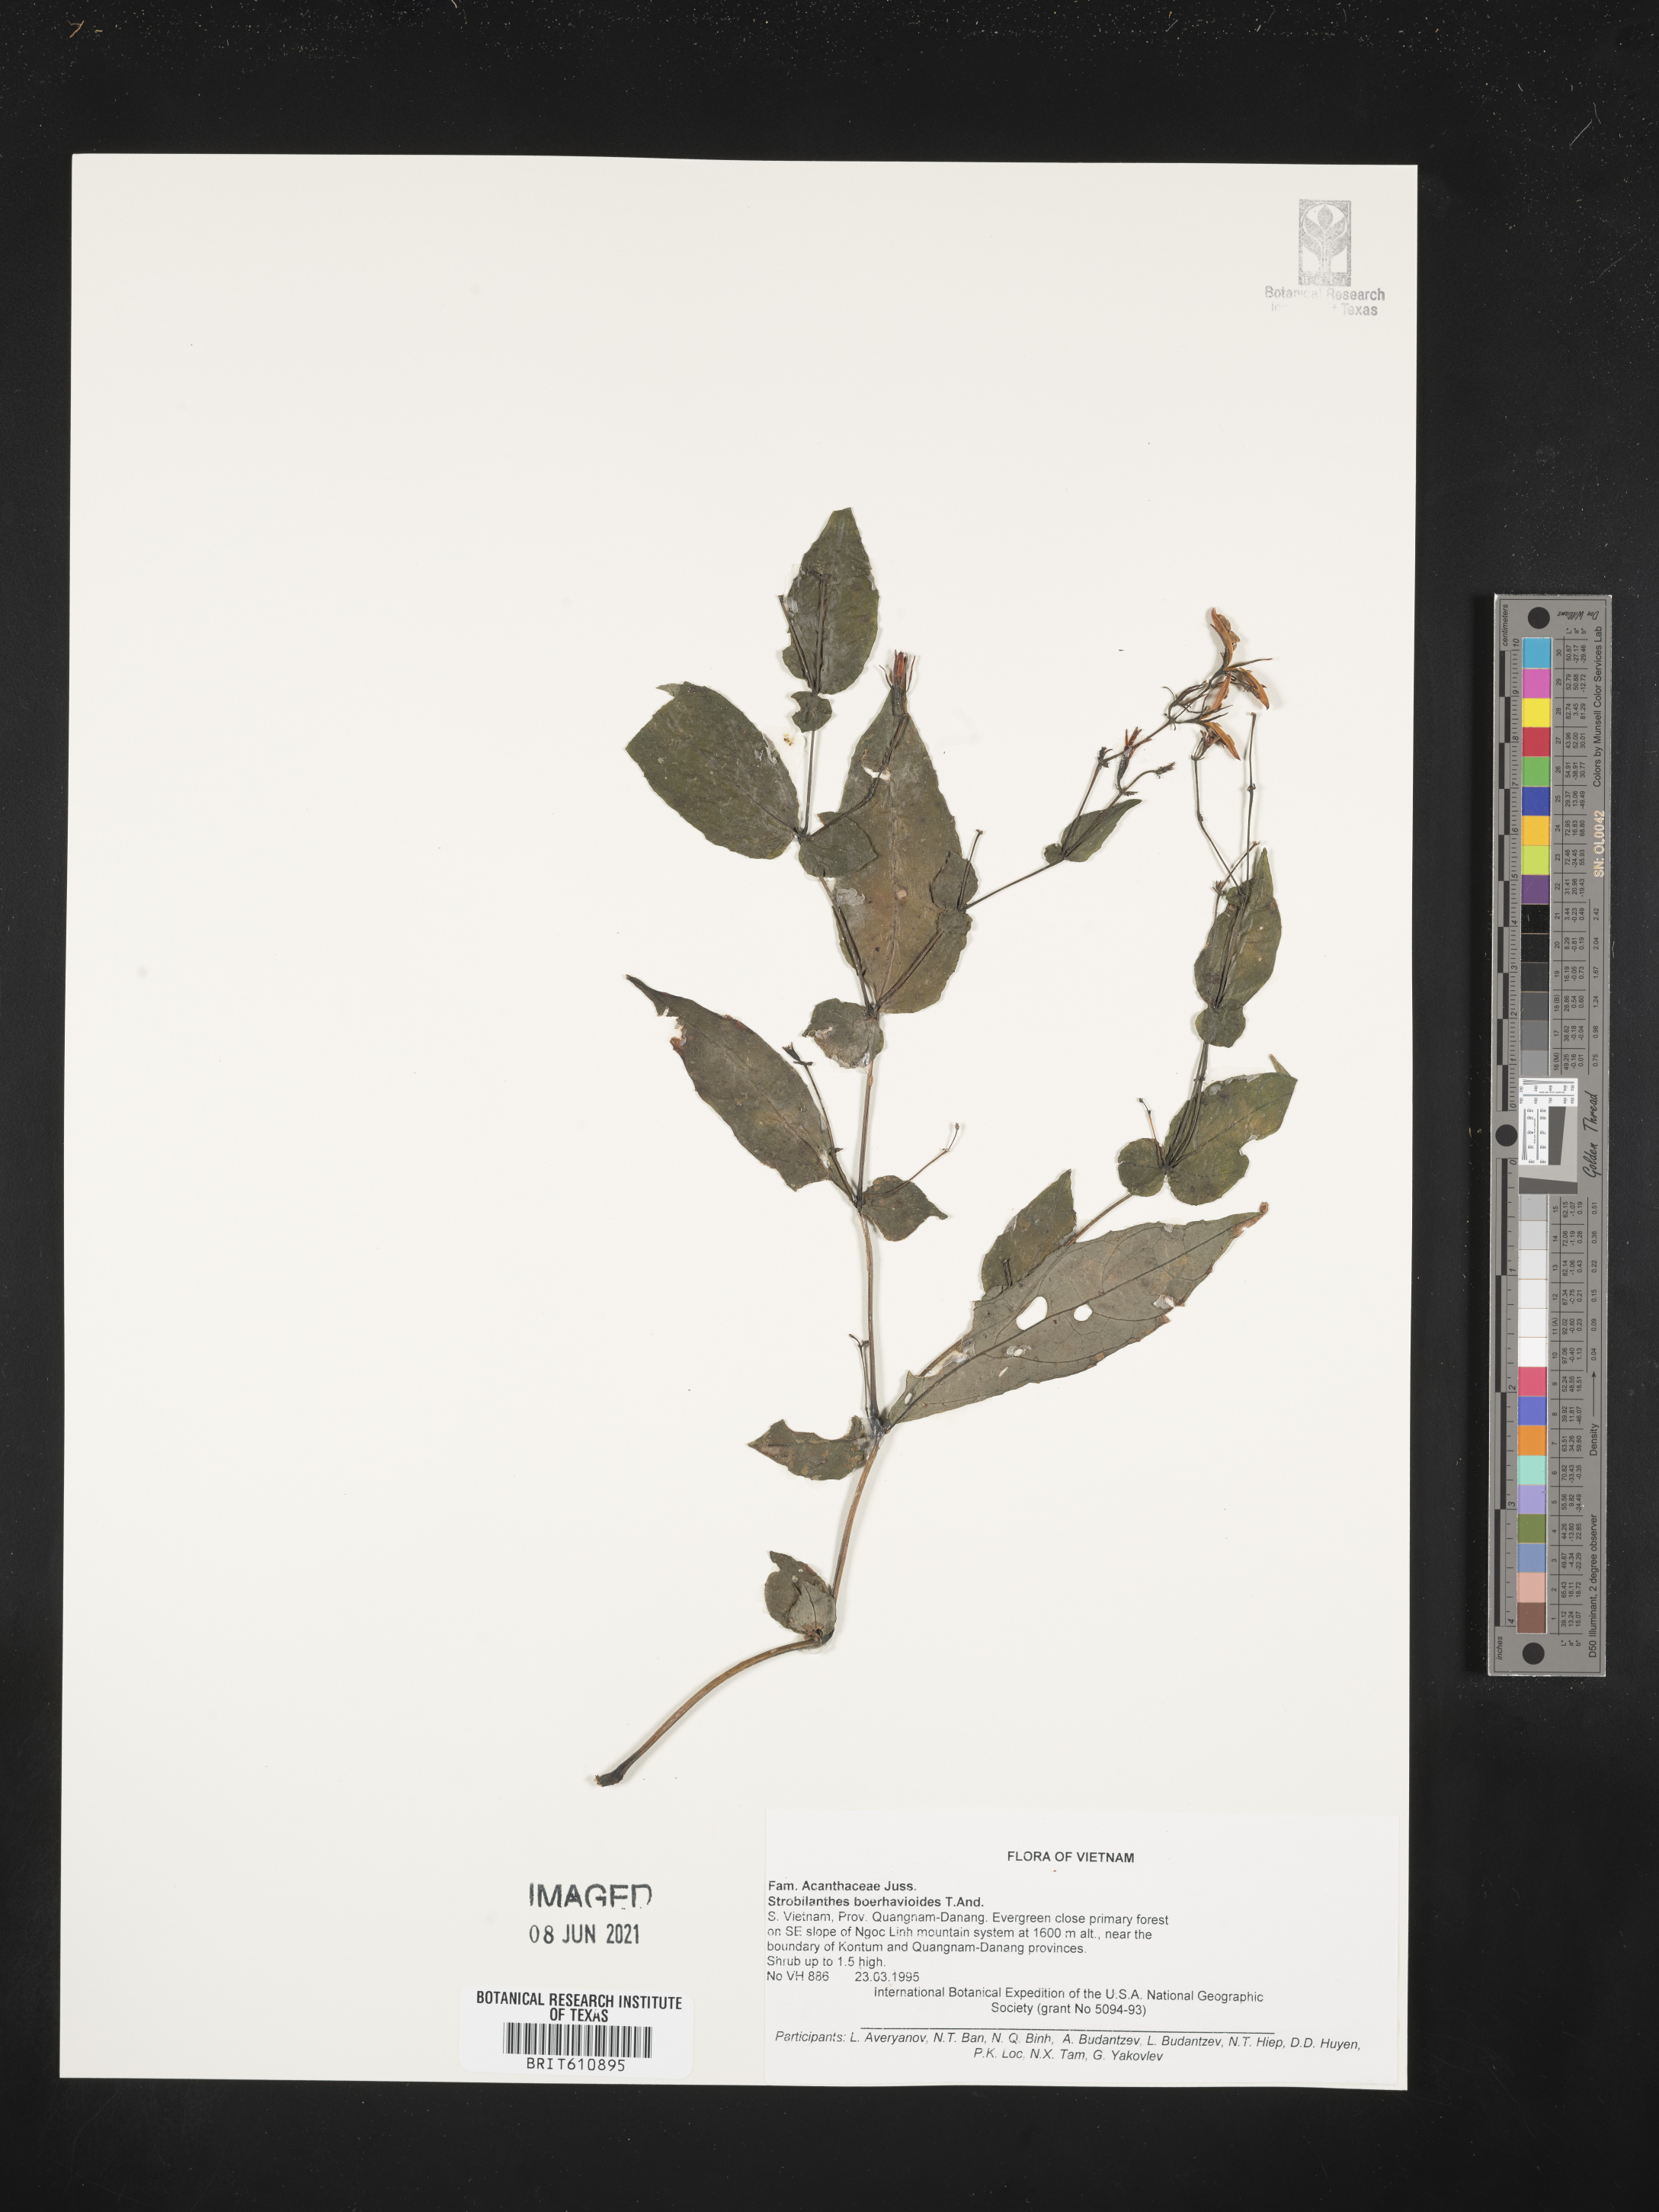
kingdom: Plantae
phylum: Tracheophyta
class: Magnoliopsida
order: Lamiales
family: Acanthaceae
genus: Strobilanthes
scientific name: Strobilanthes rubescens
